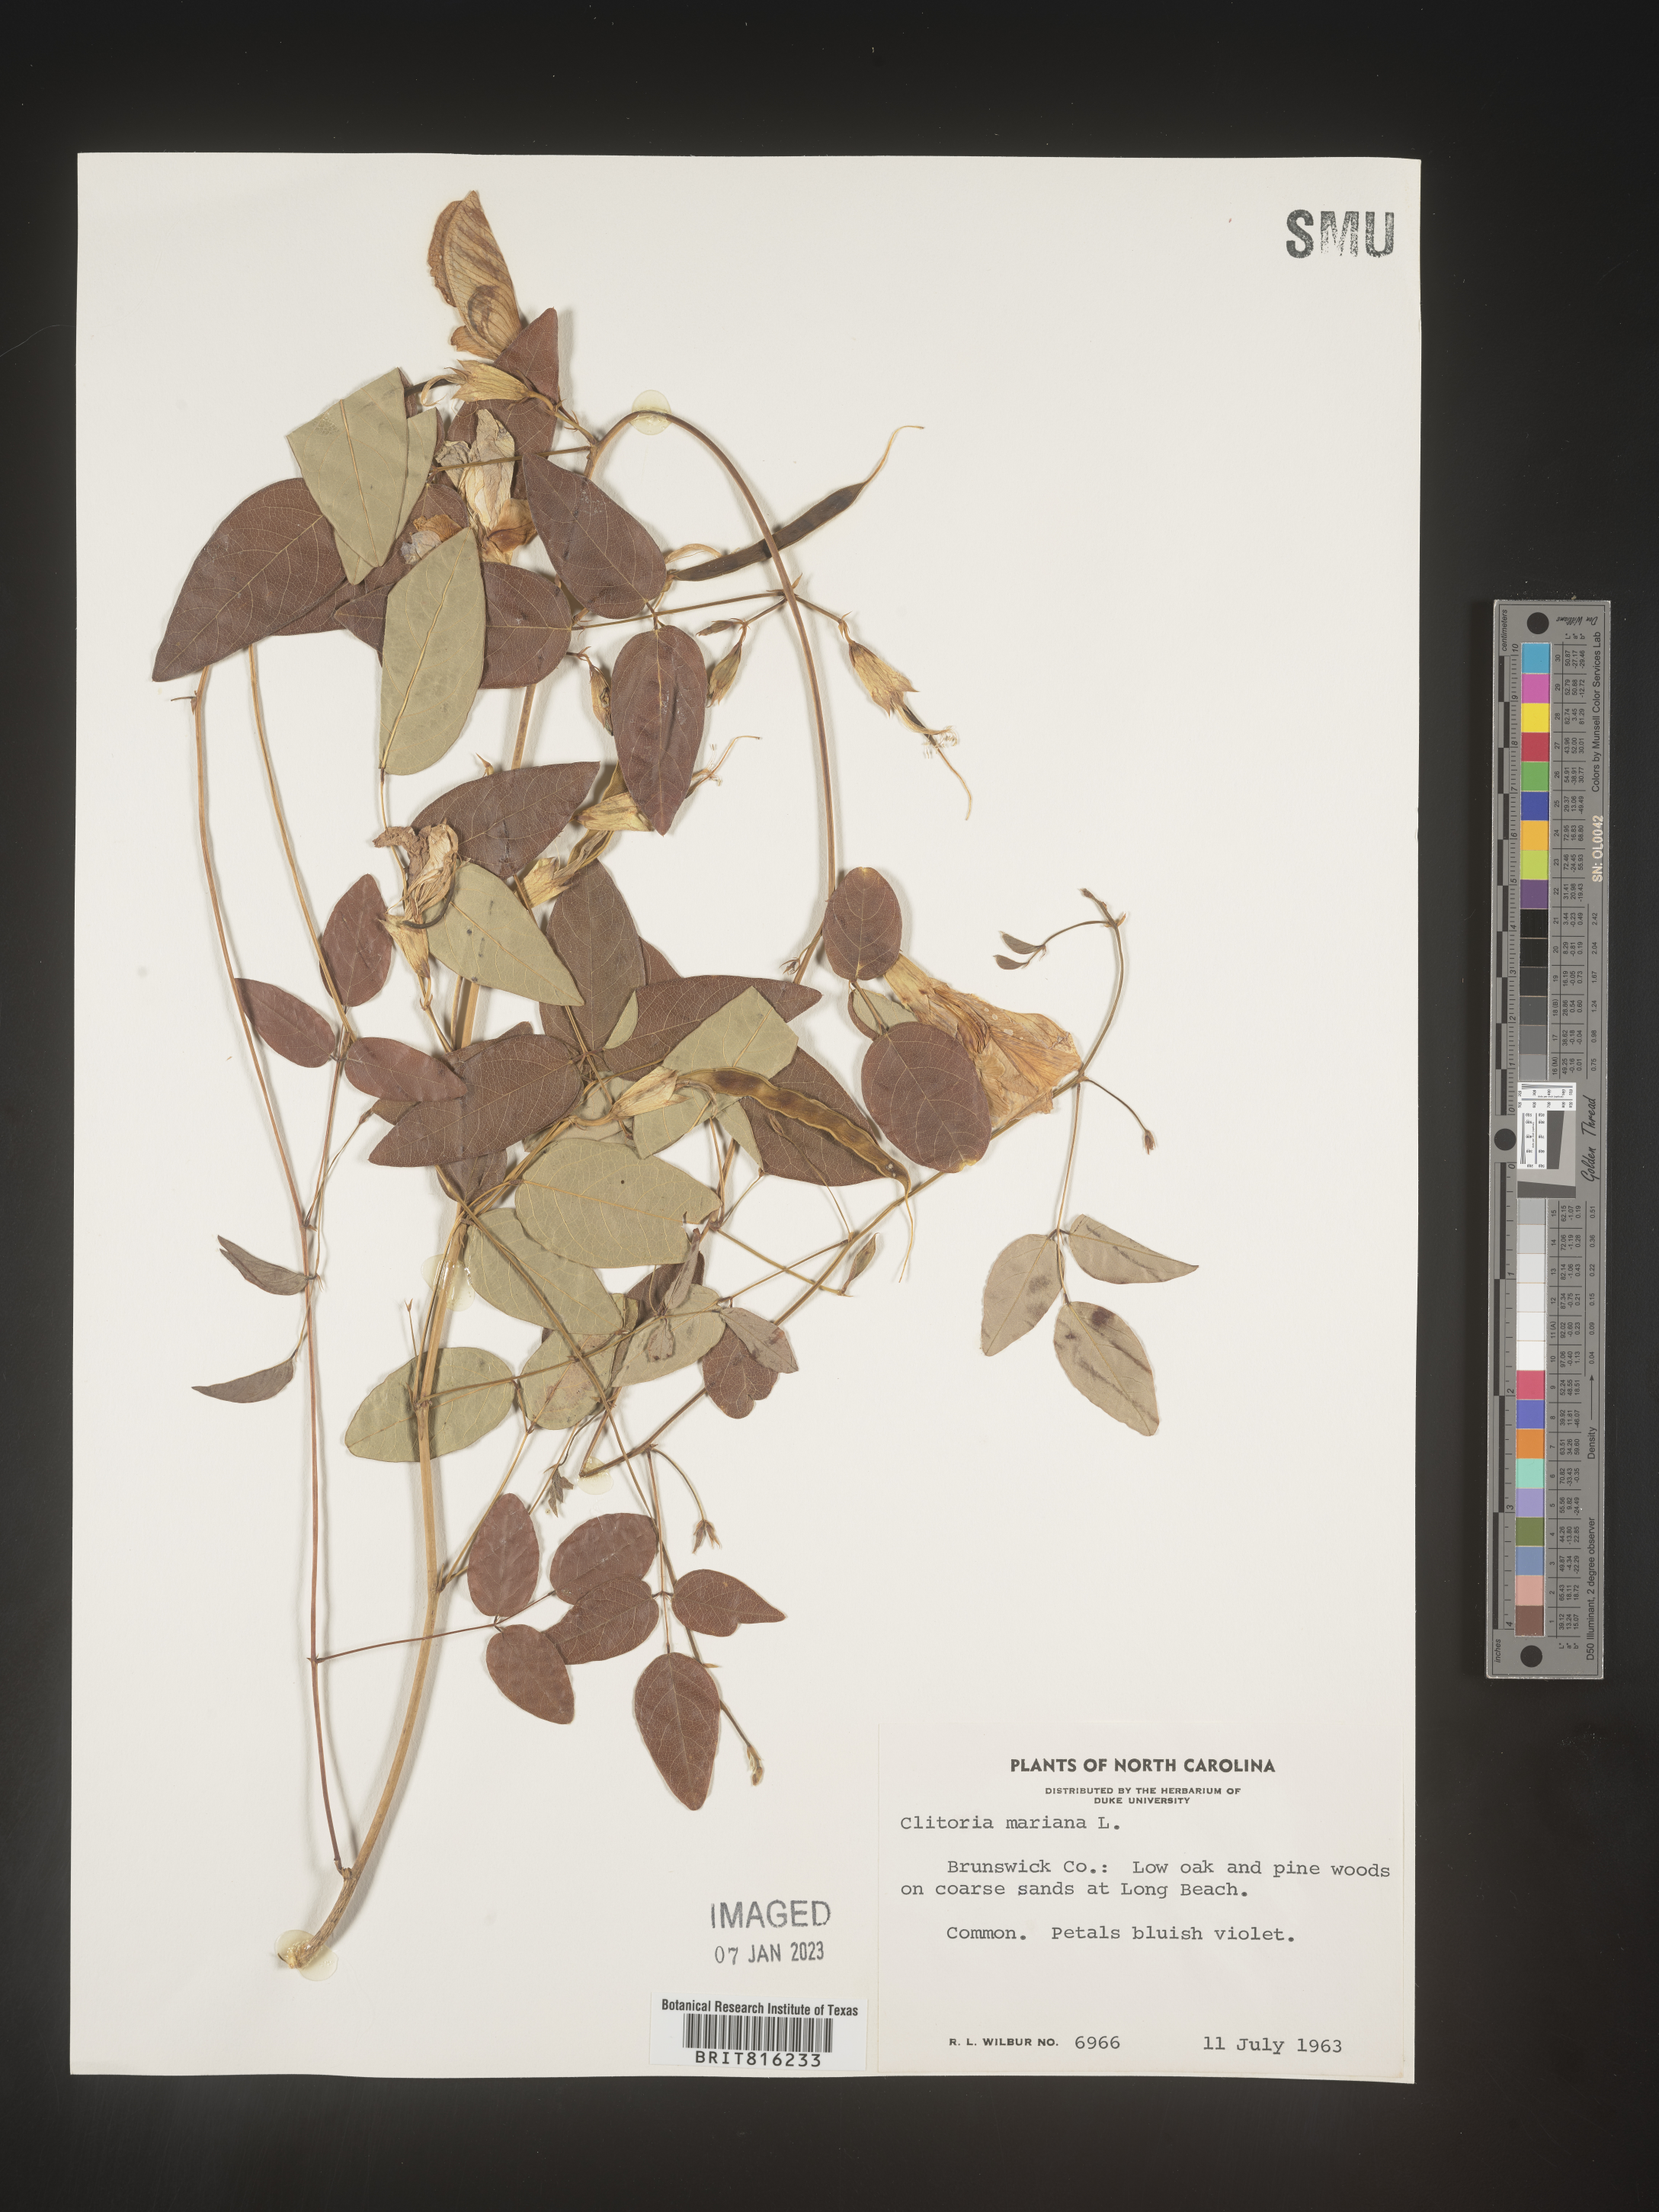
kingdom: Plantae
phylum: Tracheophyta
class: Magnoliopsida
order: Fabales
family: Fabaceae
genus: Clitoria
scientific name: Clitoria mariana
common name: Butterfly-pea
